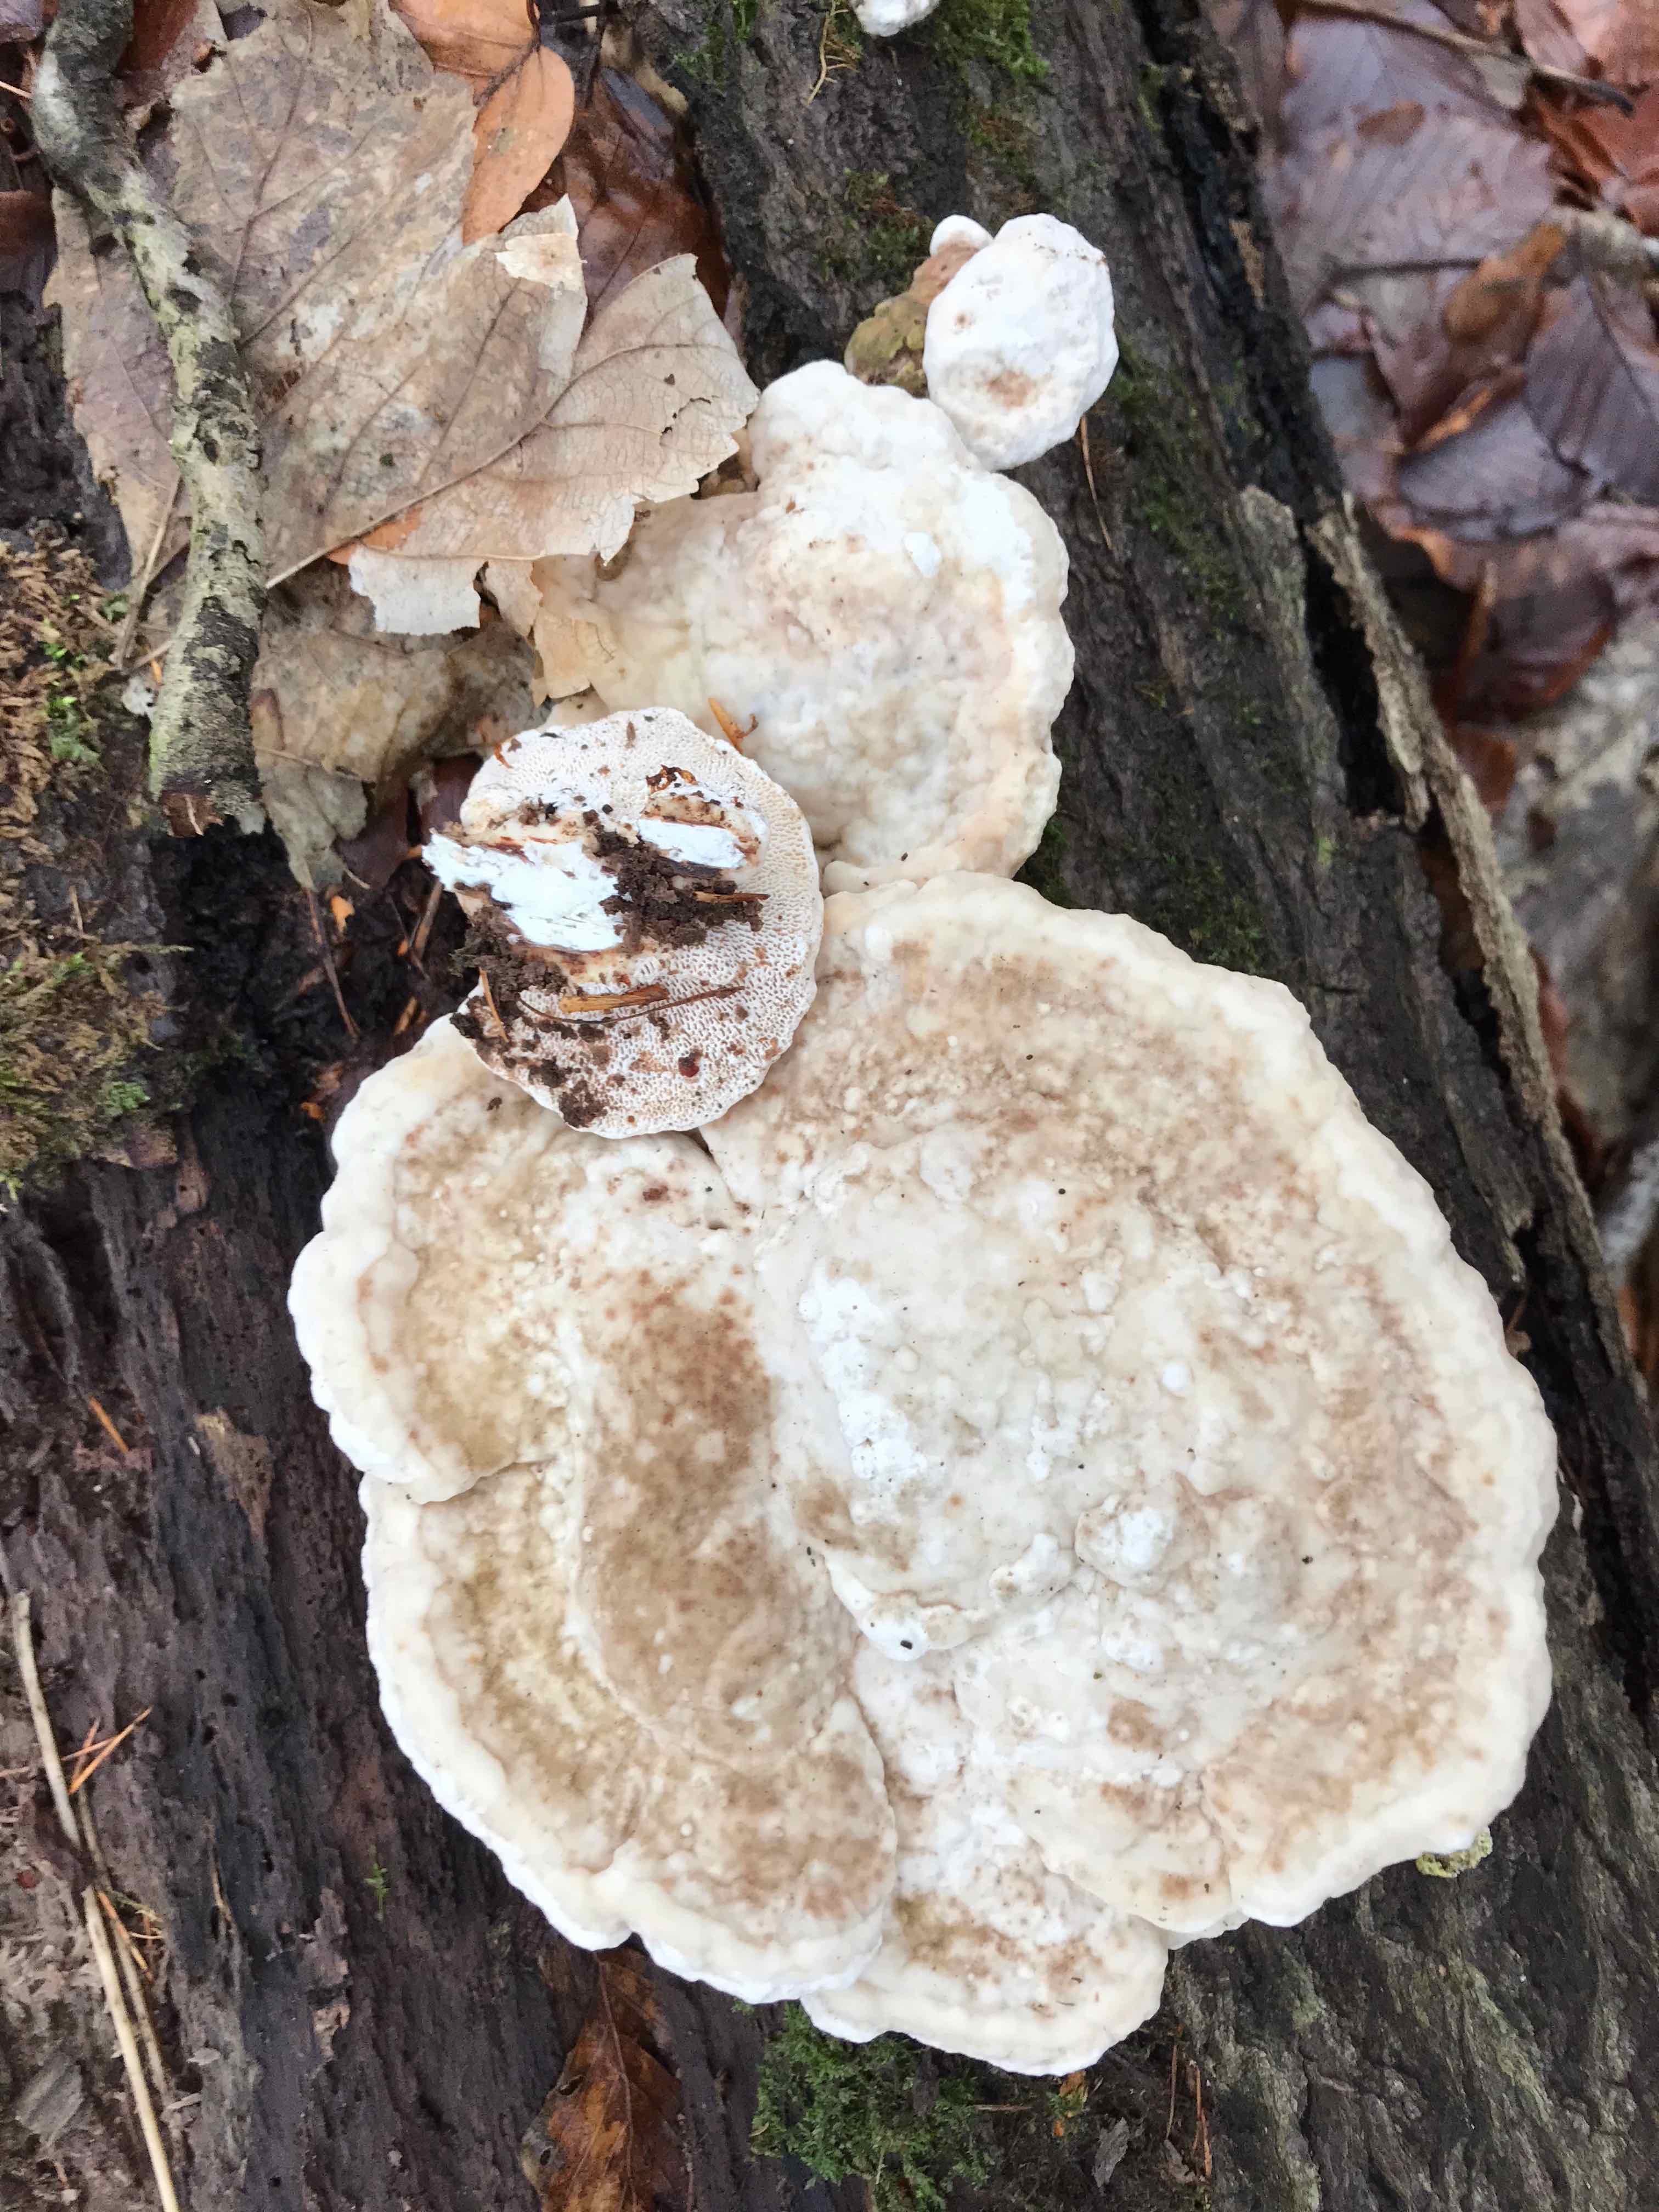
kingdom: Fungi
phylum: Basidiomycota
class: Agaricomycetes
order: Polyporales
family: Polyporaceae
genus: Trametes
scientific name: Trametes gibbosa
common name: puklet læderporesvamp
